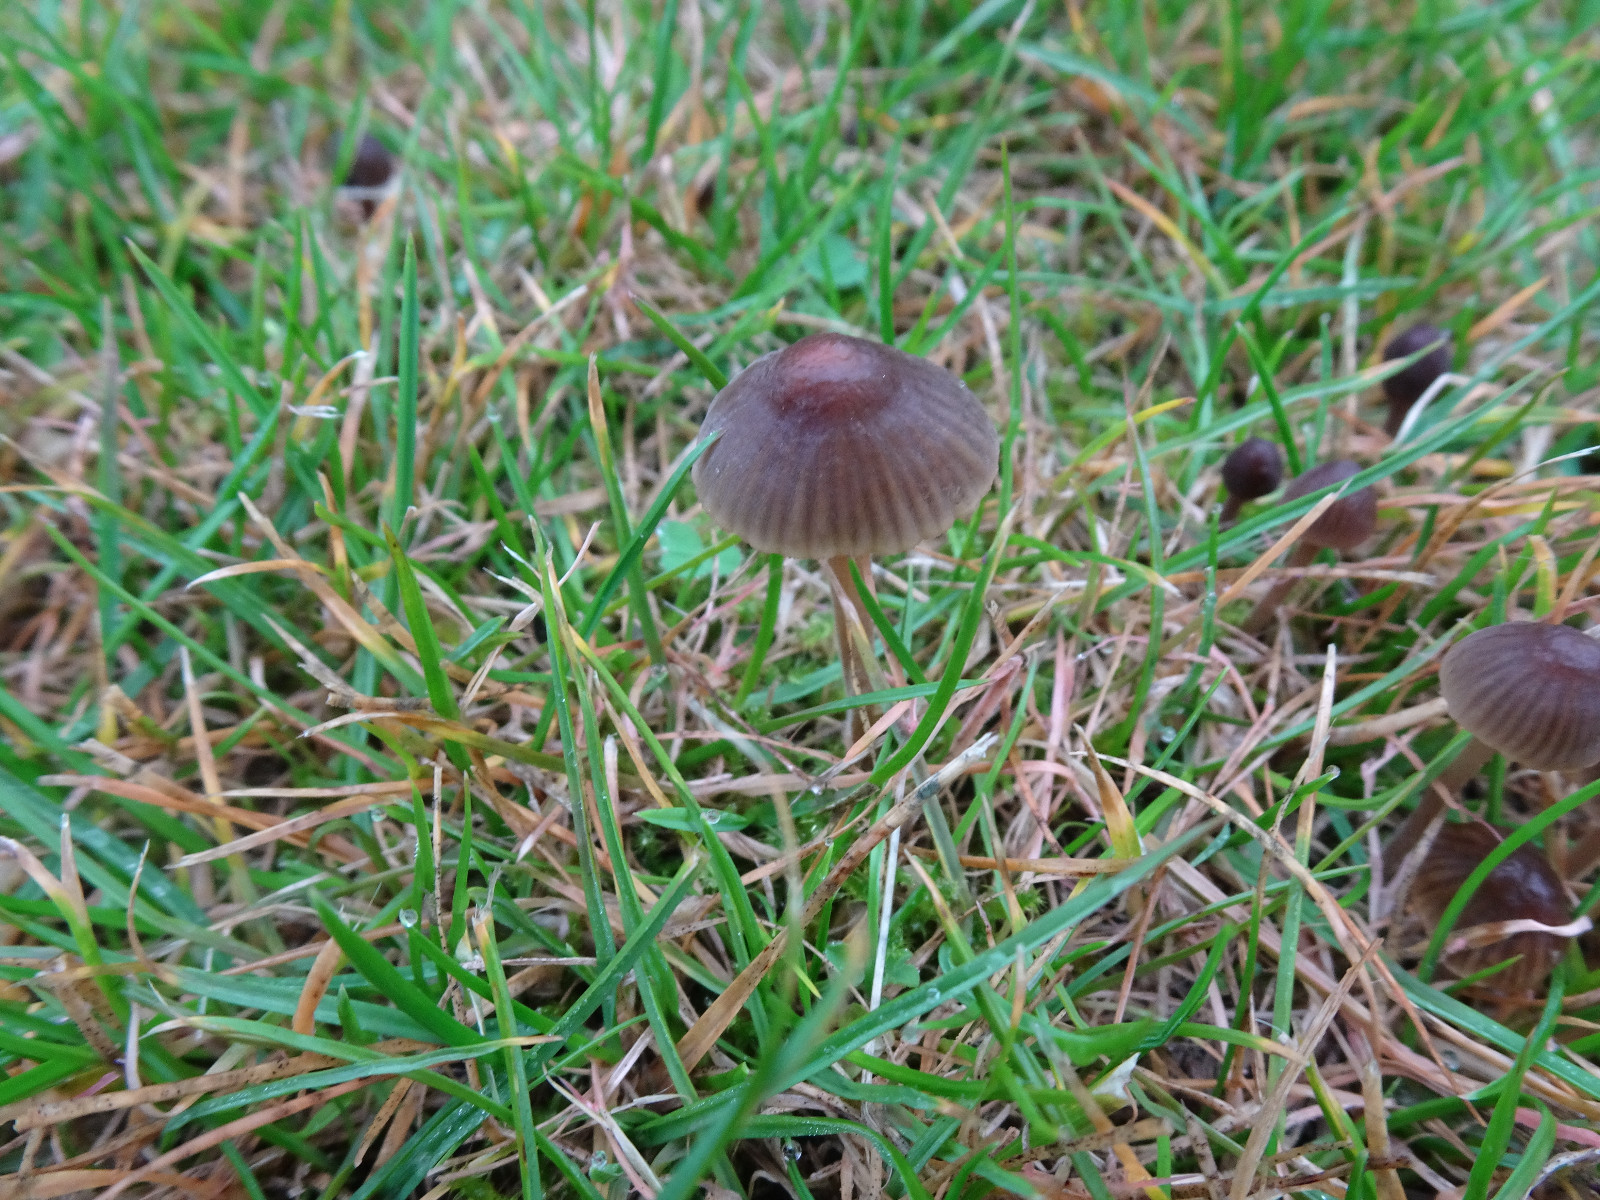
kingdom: Fungi
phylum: Basidiomycota
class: Agaricomycetes
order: Agaricales
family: Mycenaceae
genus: Mycena
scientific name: Mycena olivaceomarginata
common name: brunægget huesvamp
